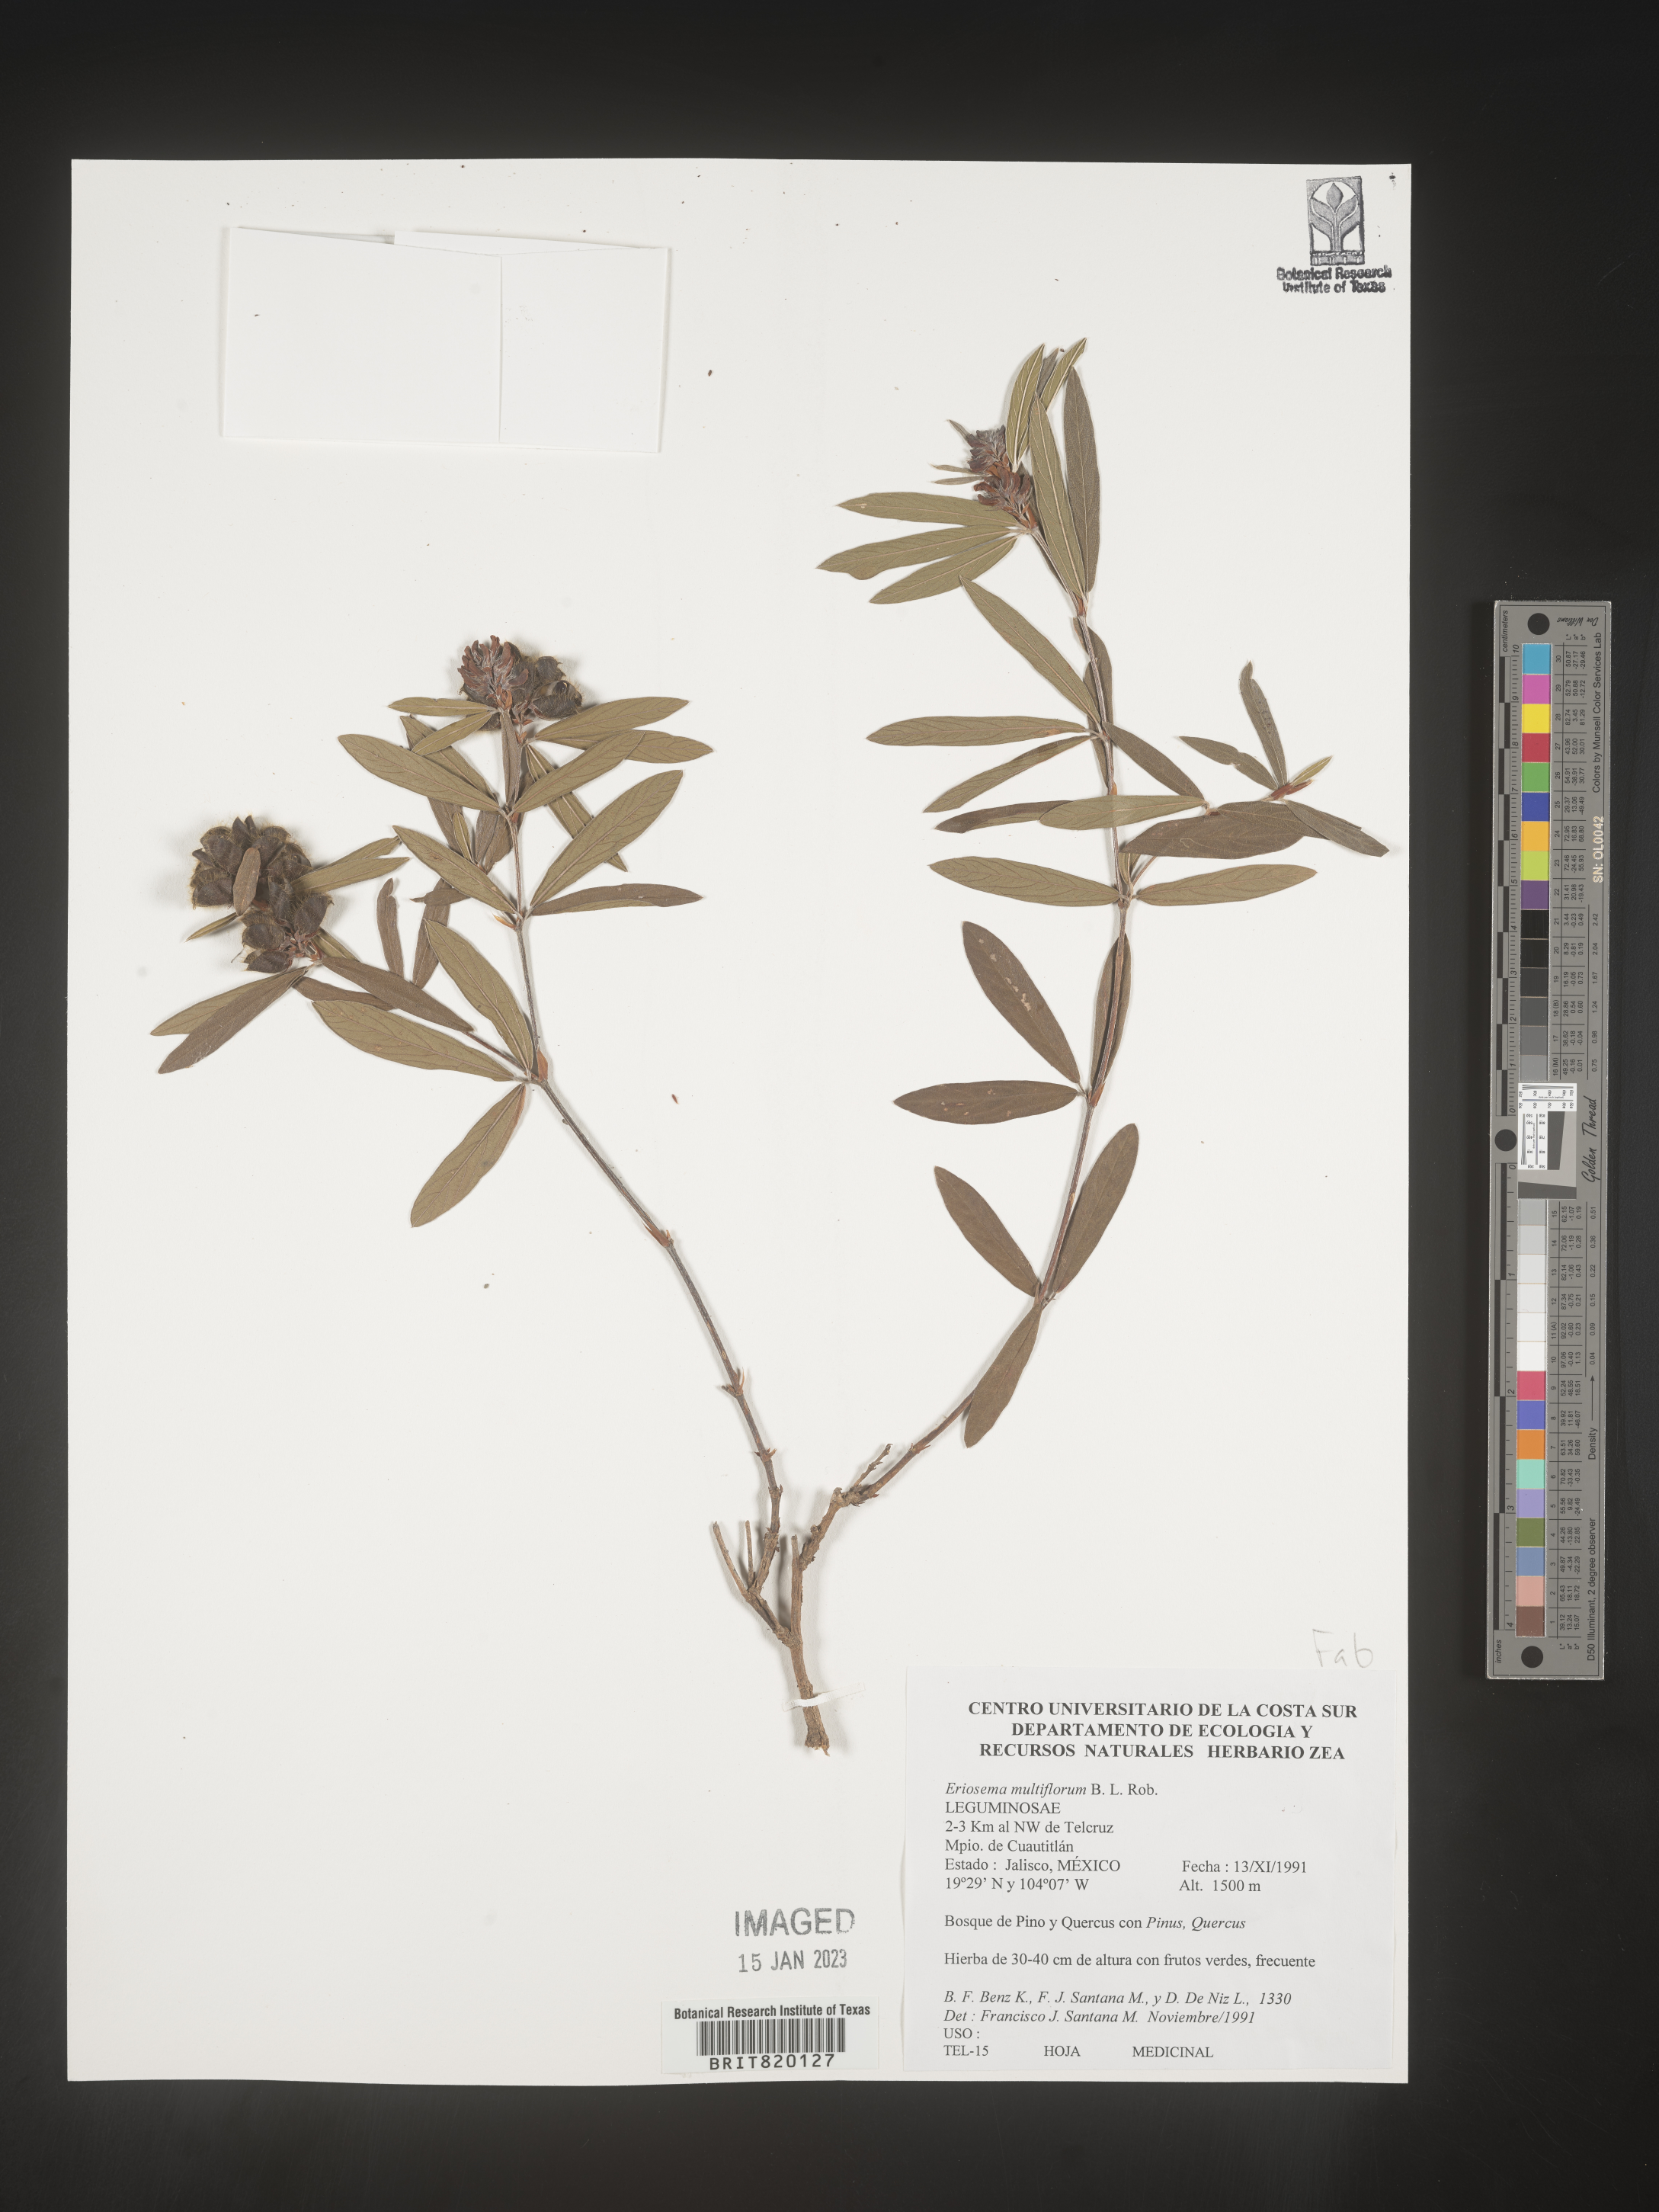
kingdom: Plantae
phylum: Tracheophyta
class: Magnoliopsida
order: Fabales
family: Fabaceae
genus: Eriosema
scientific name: Eriosema
